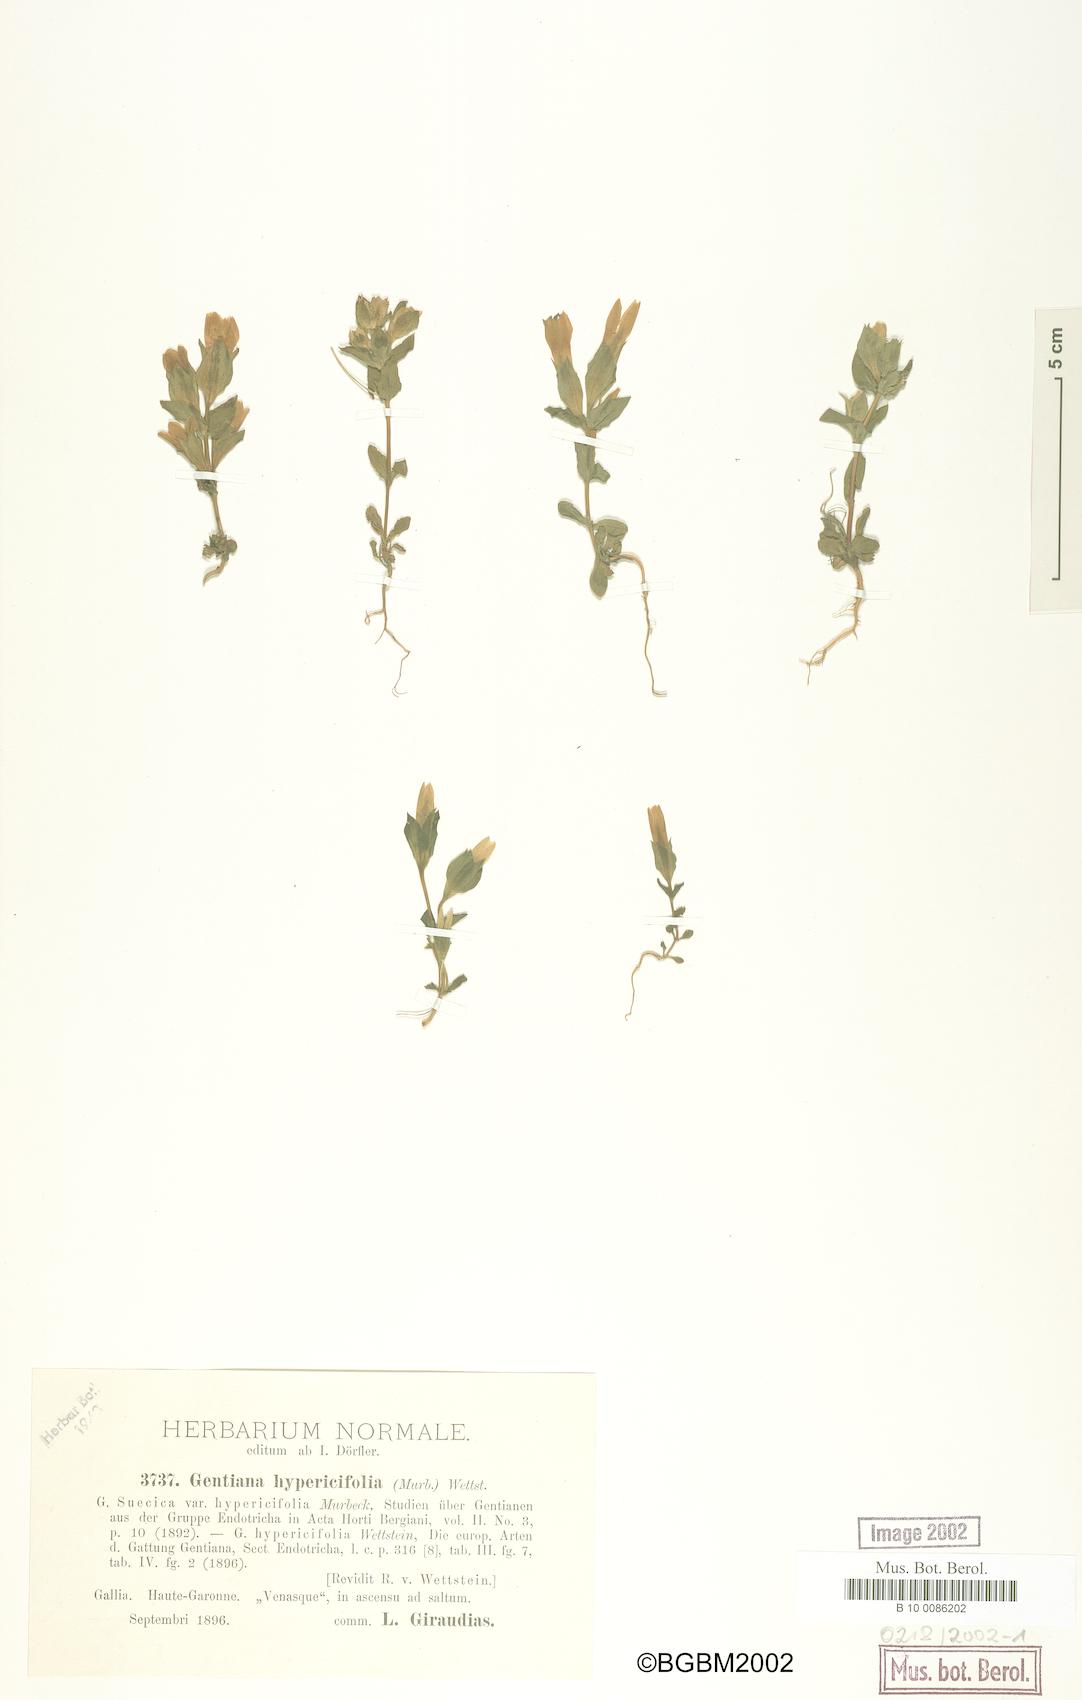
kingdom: Plantae
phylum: Tracheophyta
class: Magnoliopsida
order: Gentianales
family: Gentianaceae
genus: Gentianella
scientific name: Gentianella campestris
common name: Field gentian
